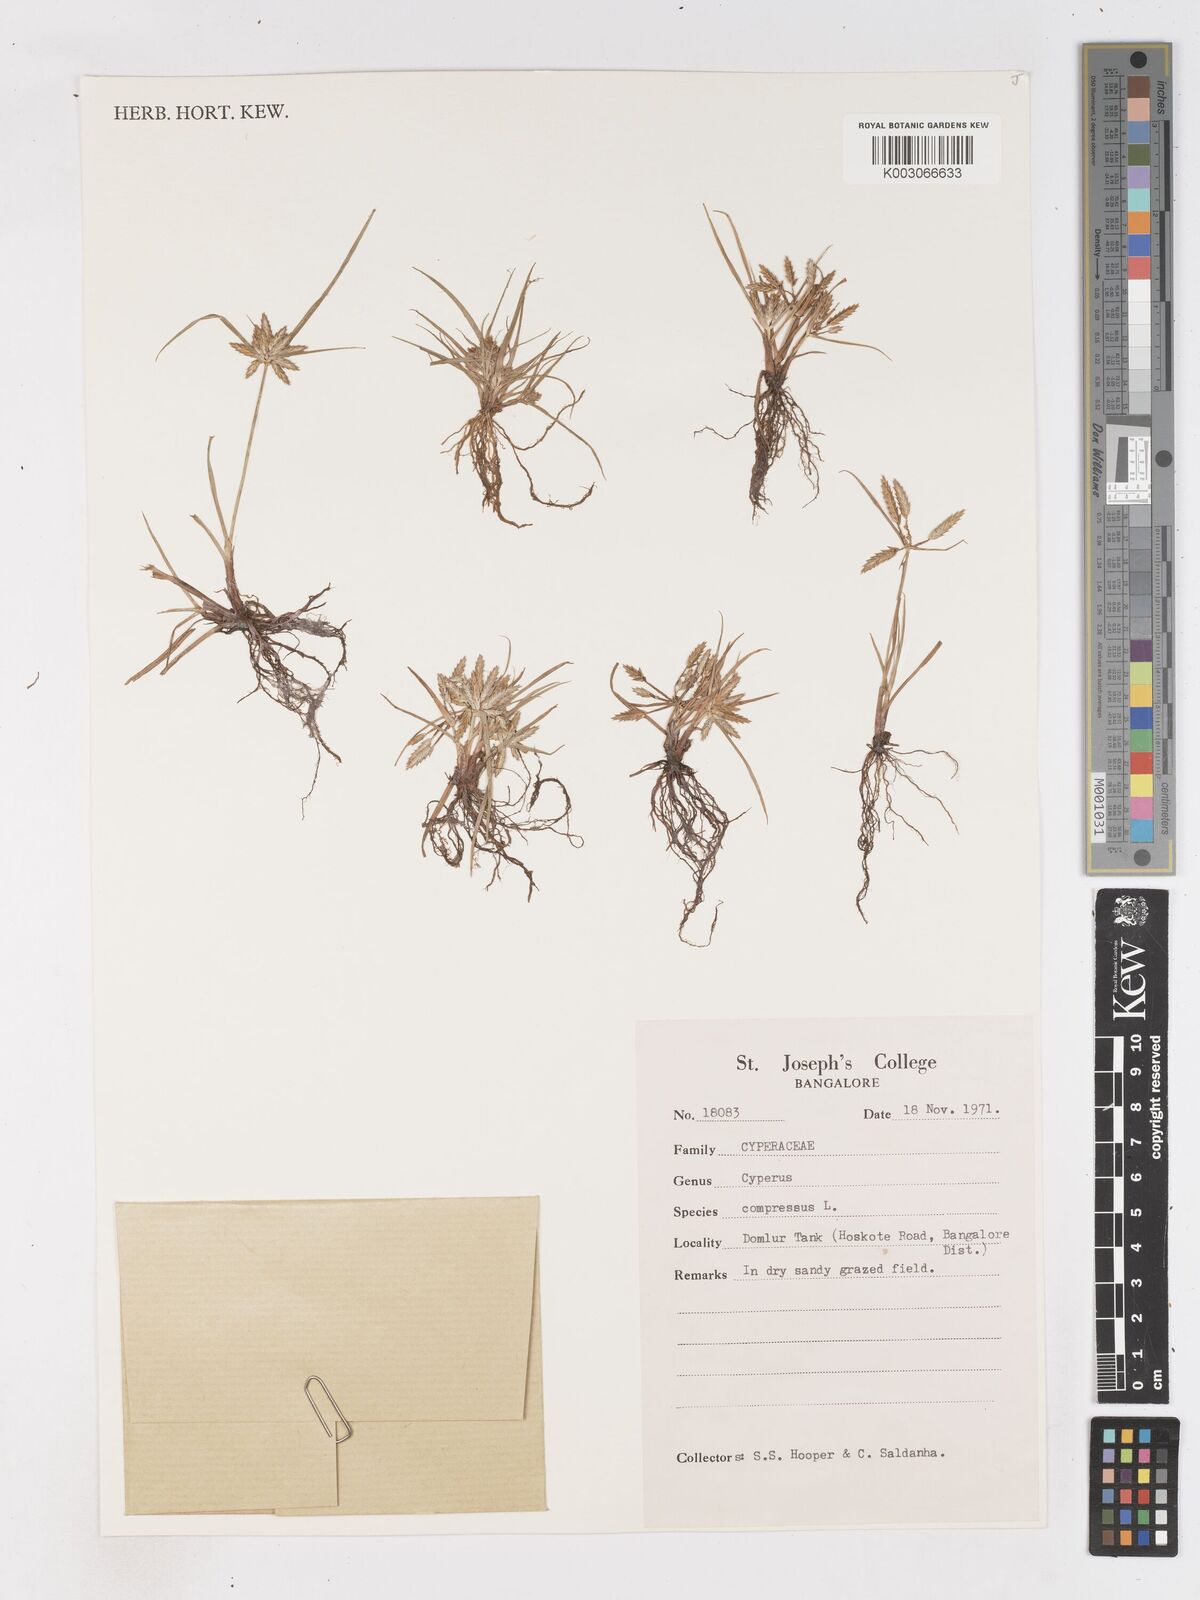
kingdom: Plantae
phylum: Tracheophyta
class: Liliopsida
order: Poales
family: Cyperaceae
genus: Cyperus
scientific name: Cyperus compressus
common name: Poorland flatsedge
